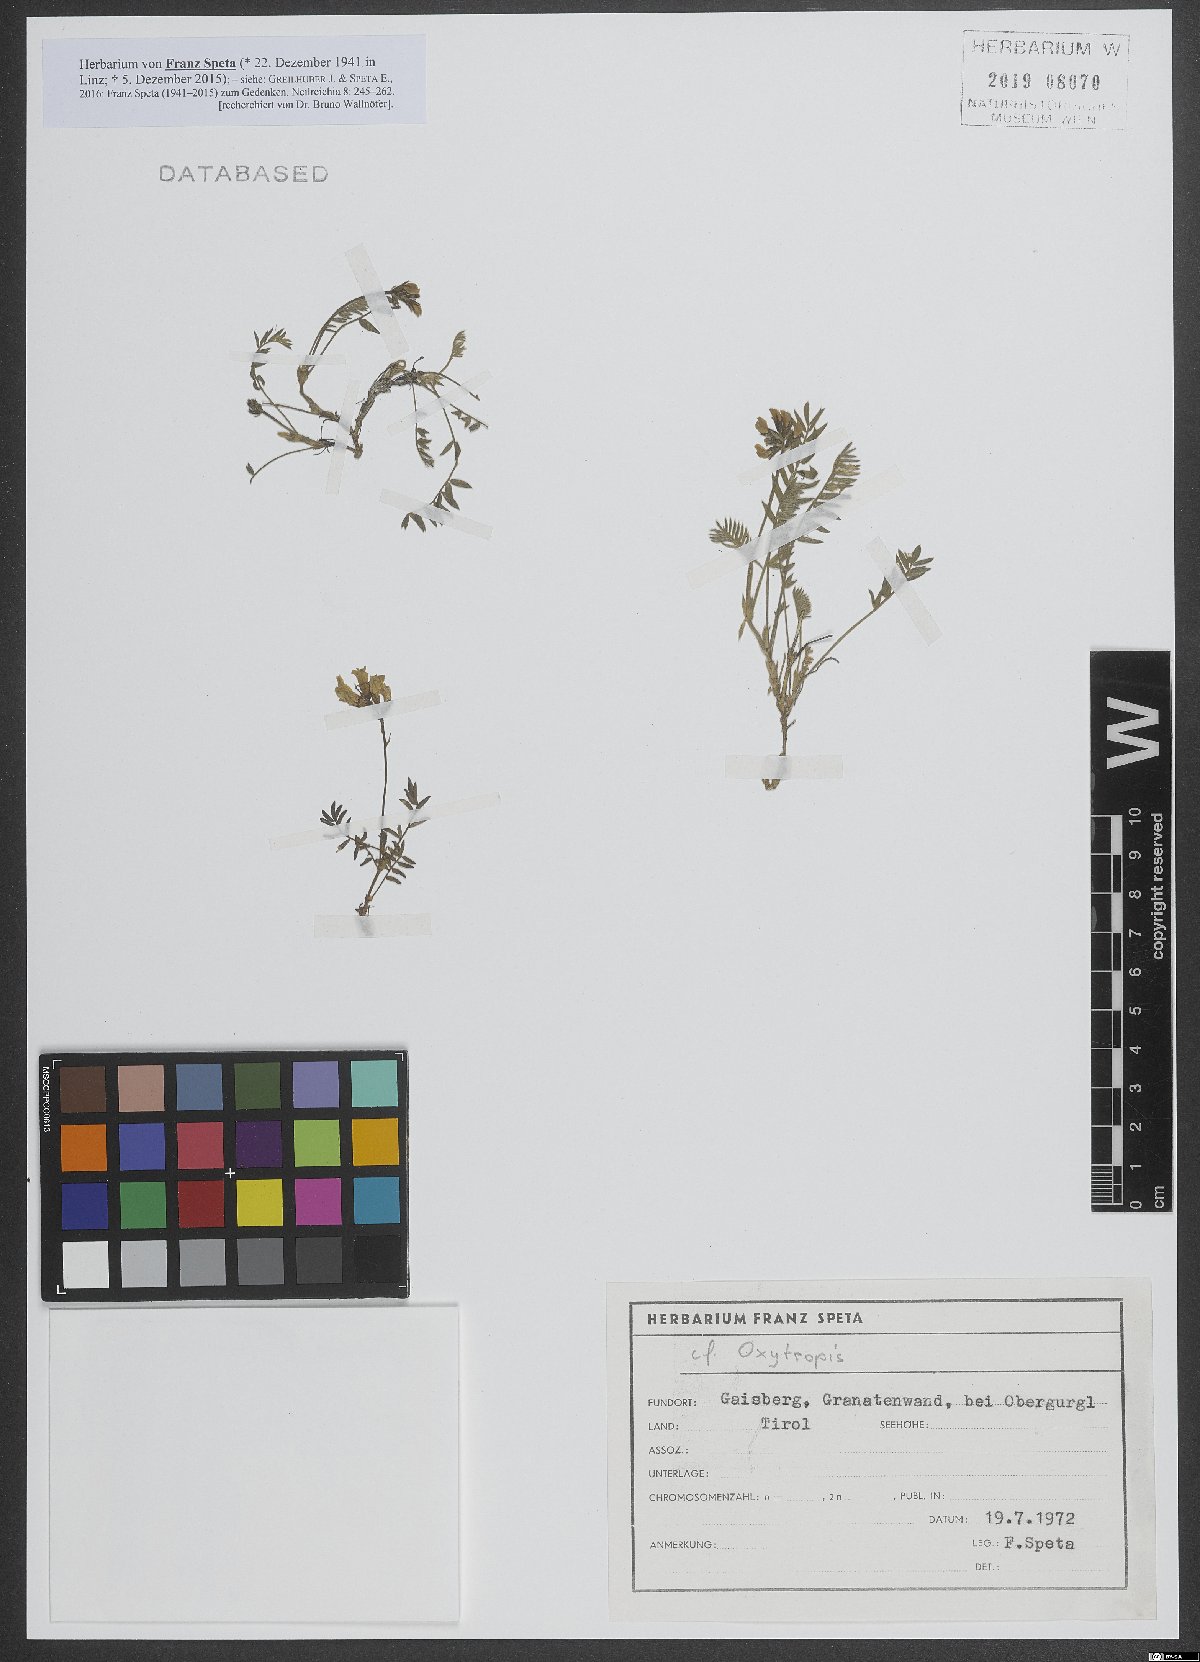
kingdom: Plantae
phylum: Tracheophyta
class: Magnoliopsida
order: Fabales
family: Fabaceae
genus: Oxytropis
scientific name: Oxytropis
